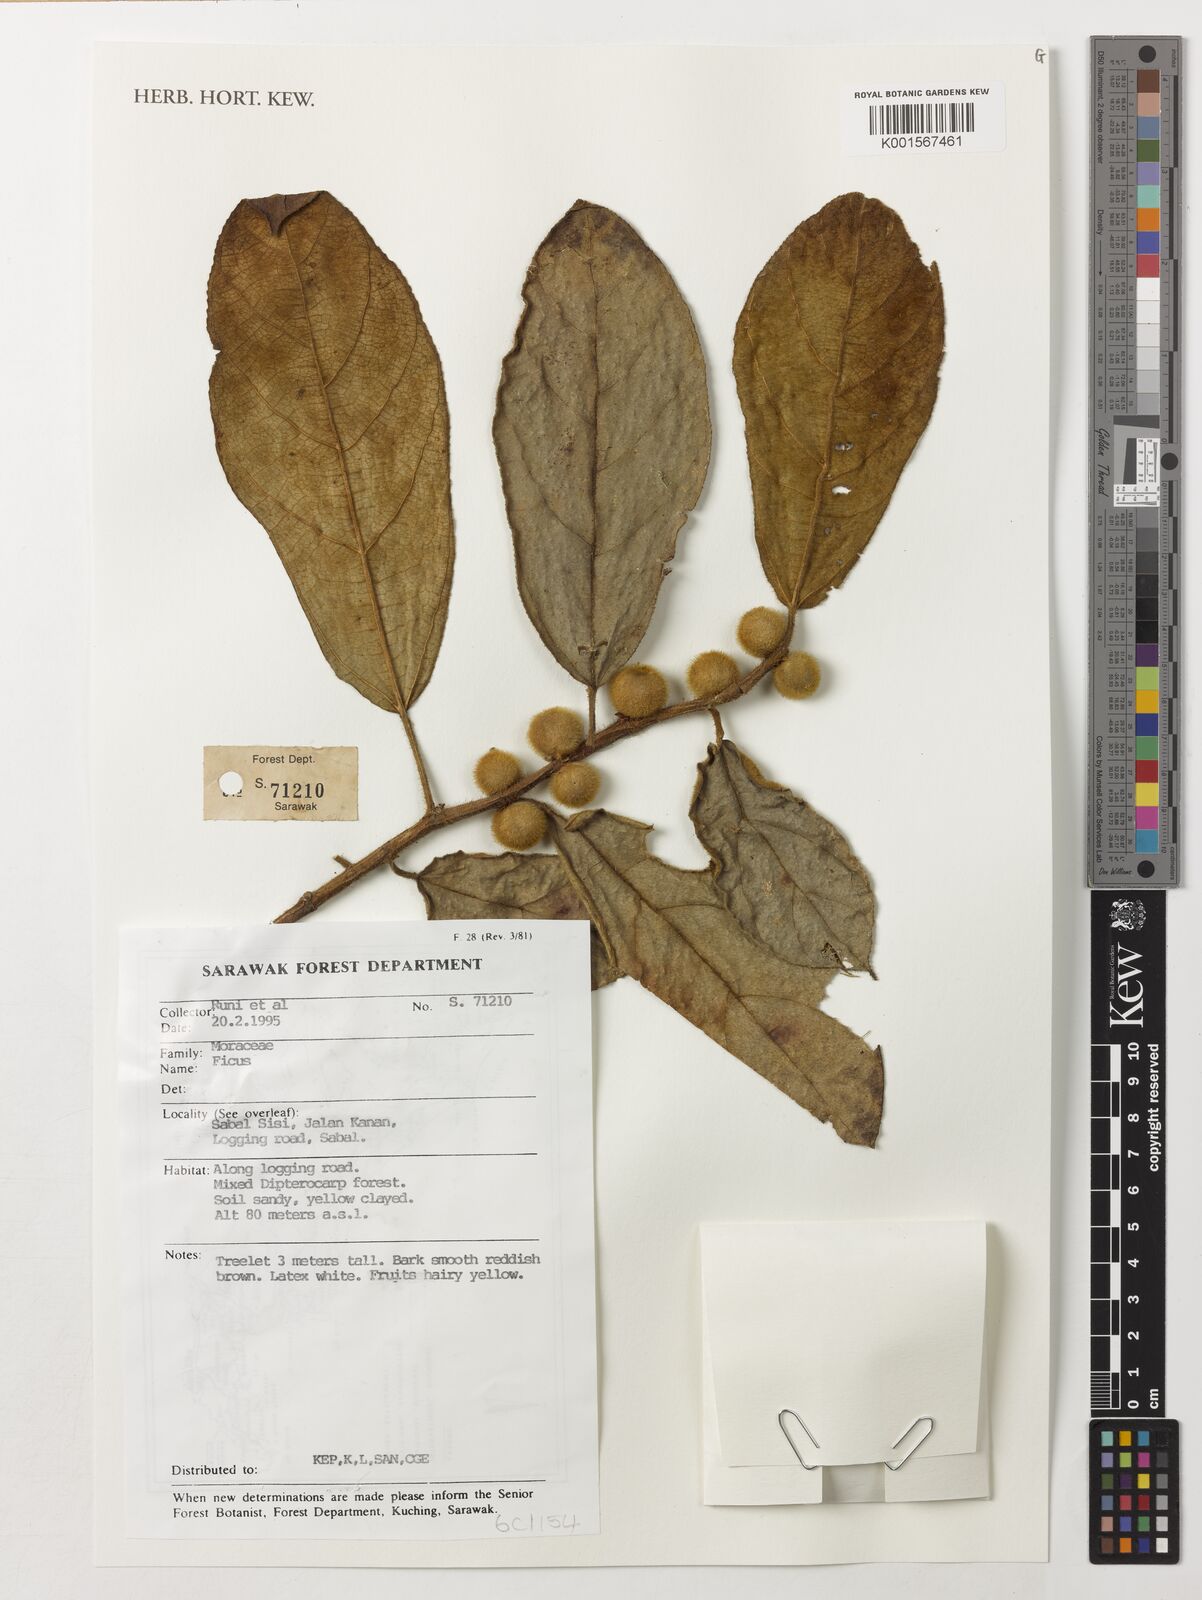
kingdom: Plantae
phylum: Tracheophyta
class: Magnoliopsida
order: Rosales
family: Moraceae
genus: Ficus
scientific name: Ficus
